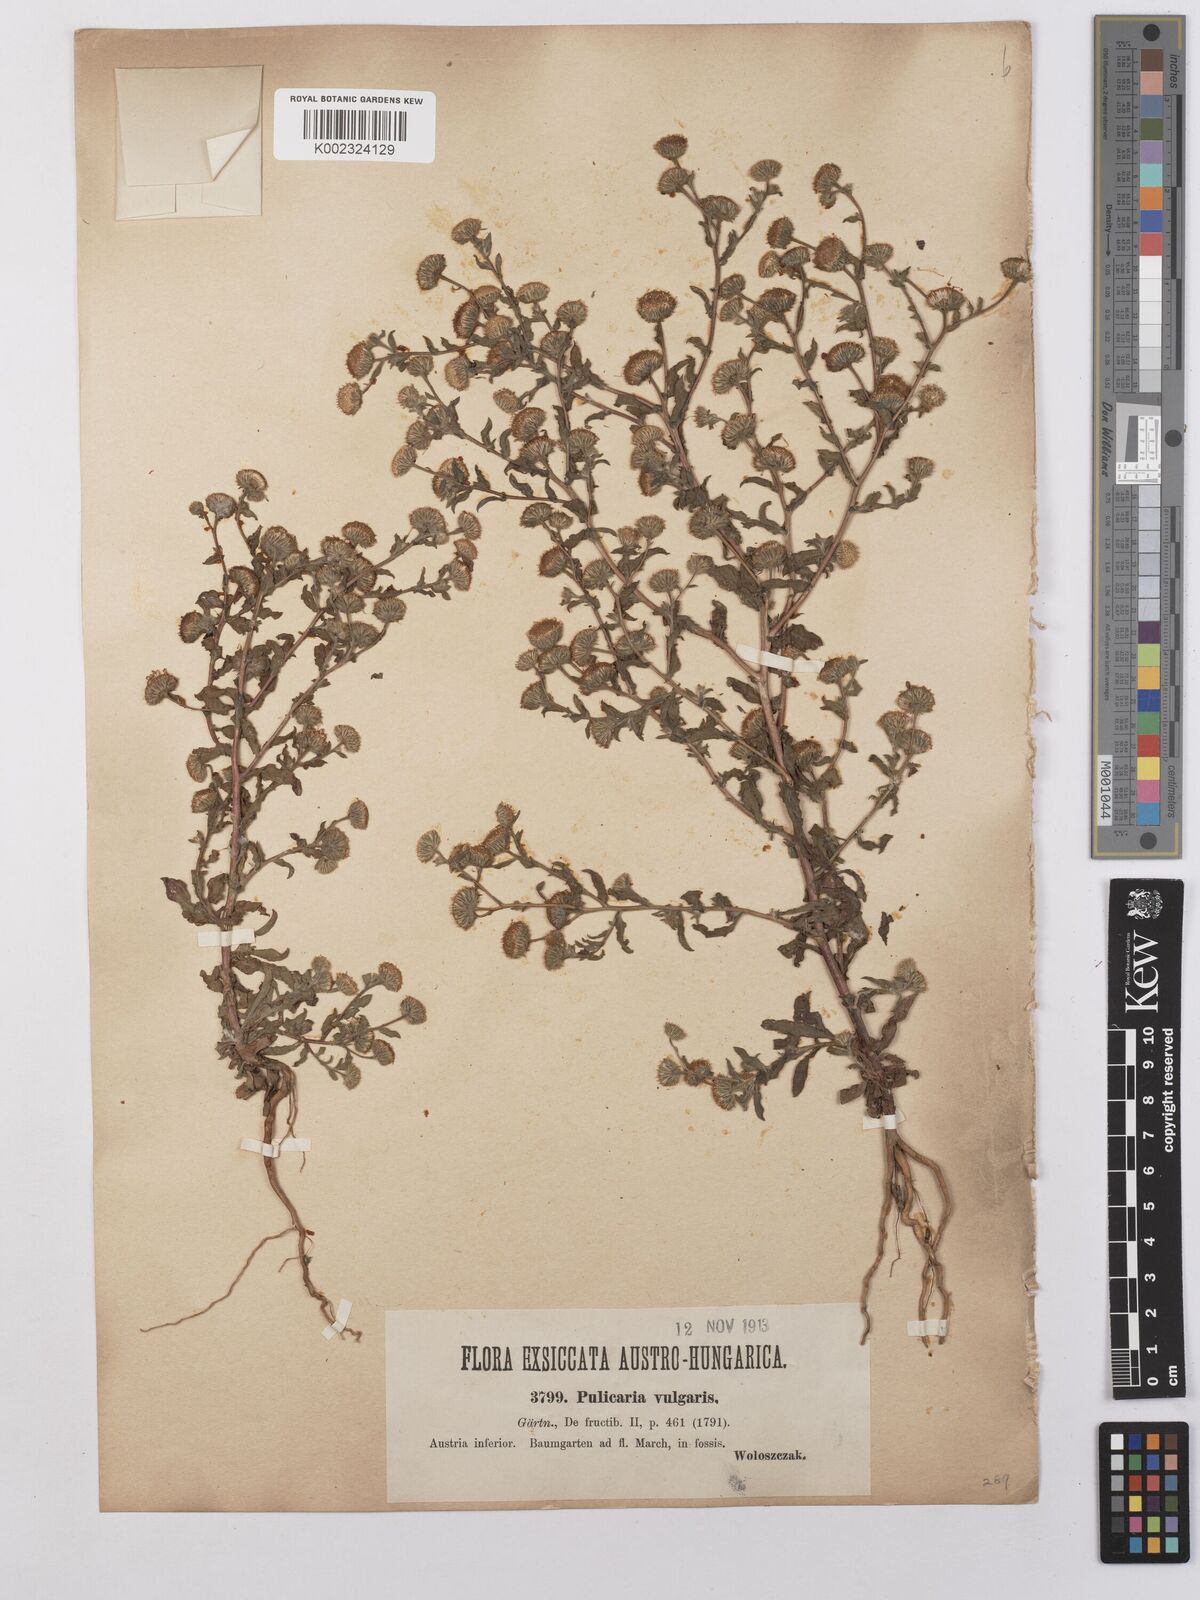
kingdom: Plantae
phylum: Tracheophyta
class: Magnoliopsida
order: Asterales
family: Asteraceae
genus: Pulicaria
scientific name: Pulicaria vulgaris
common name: Small fleabane
